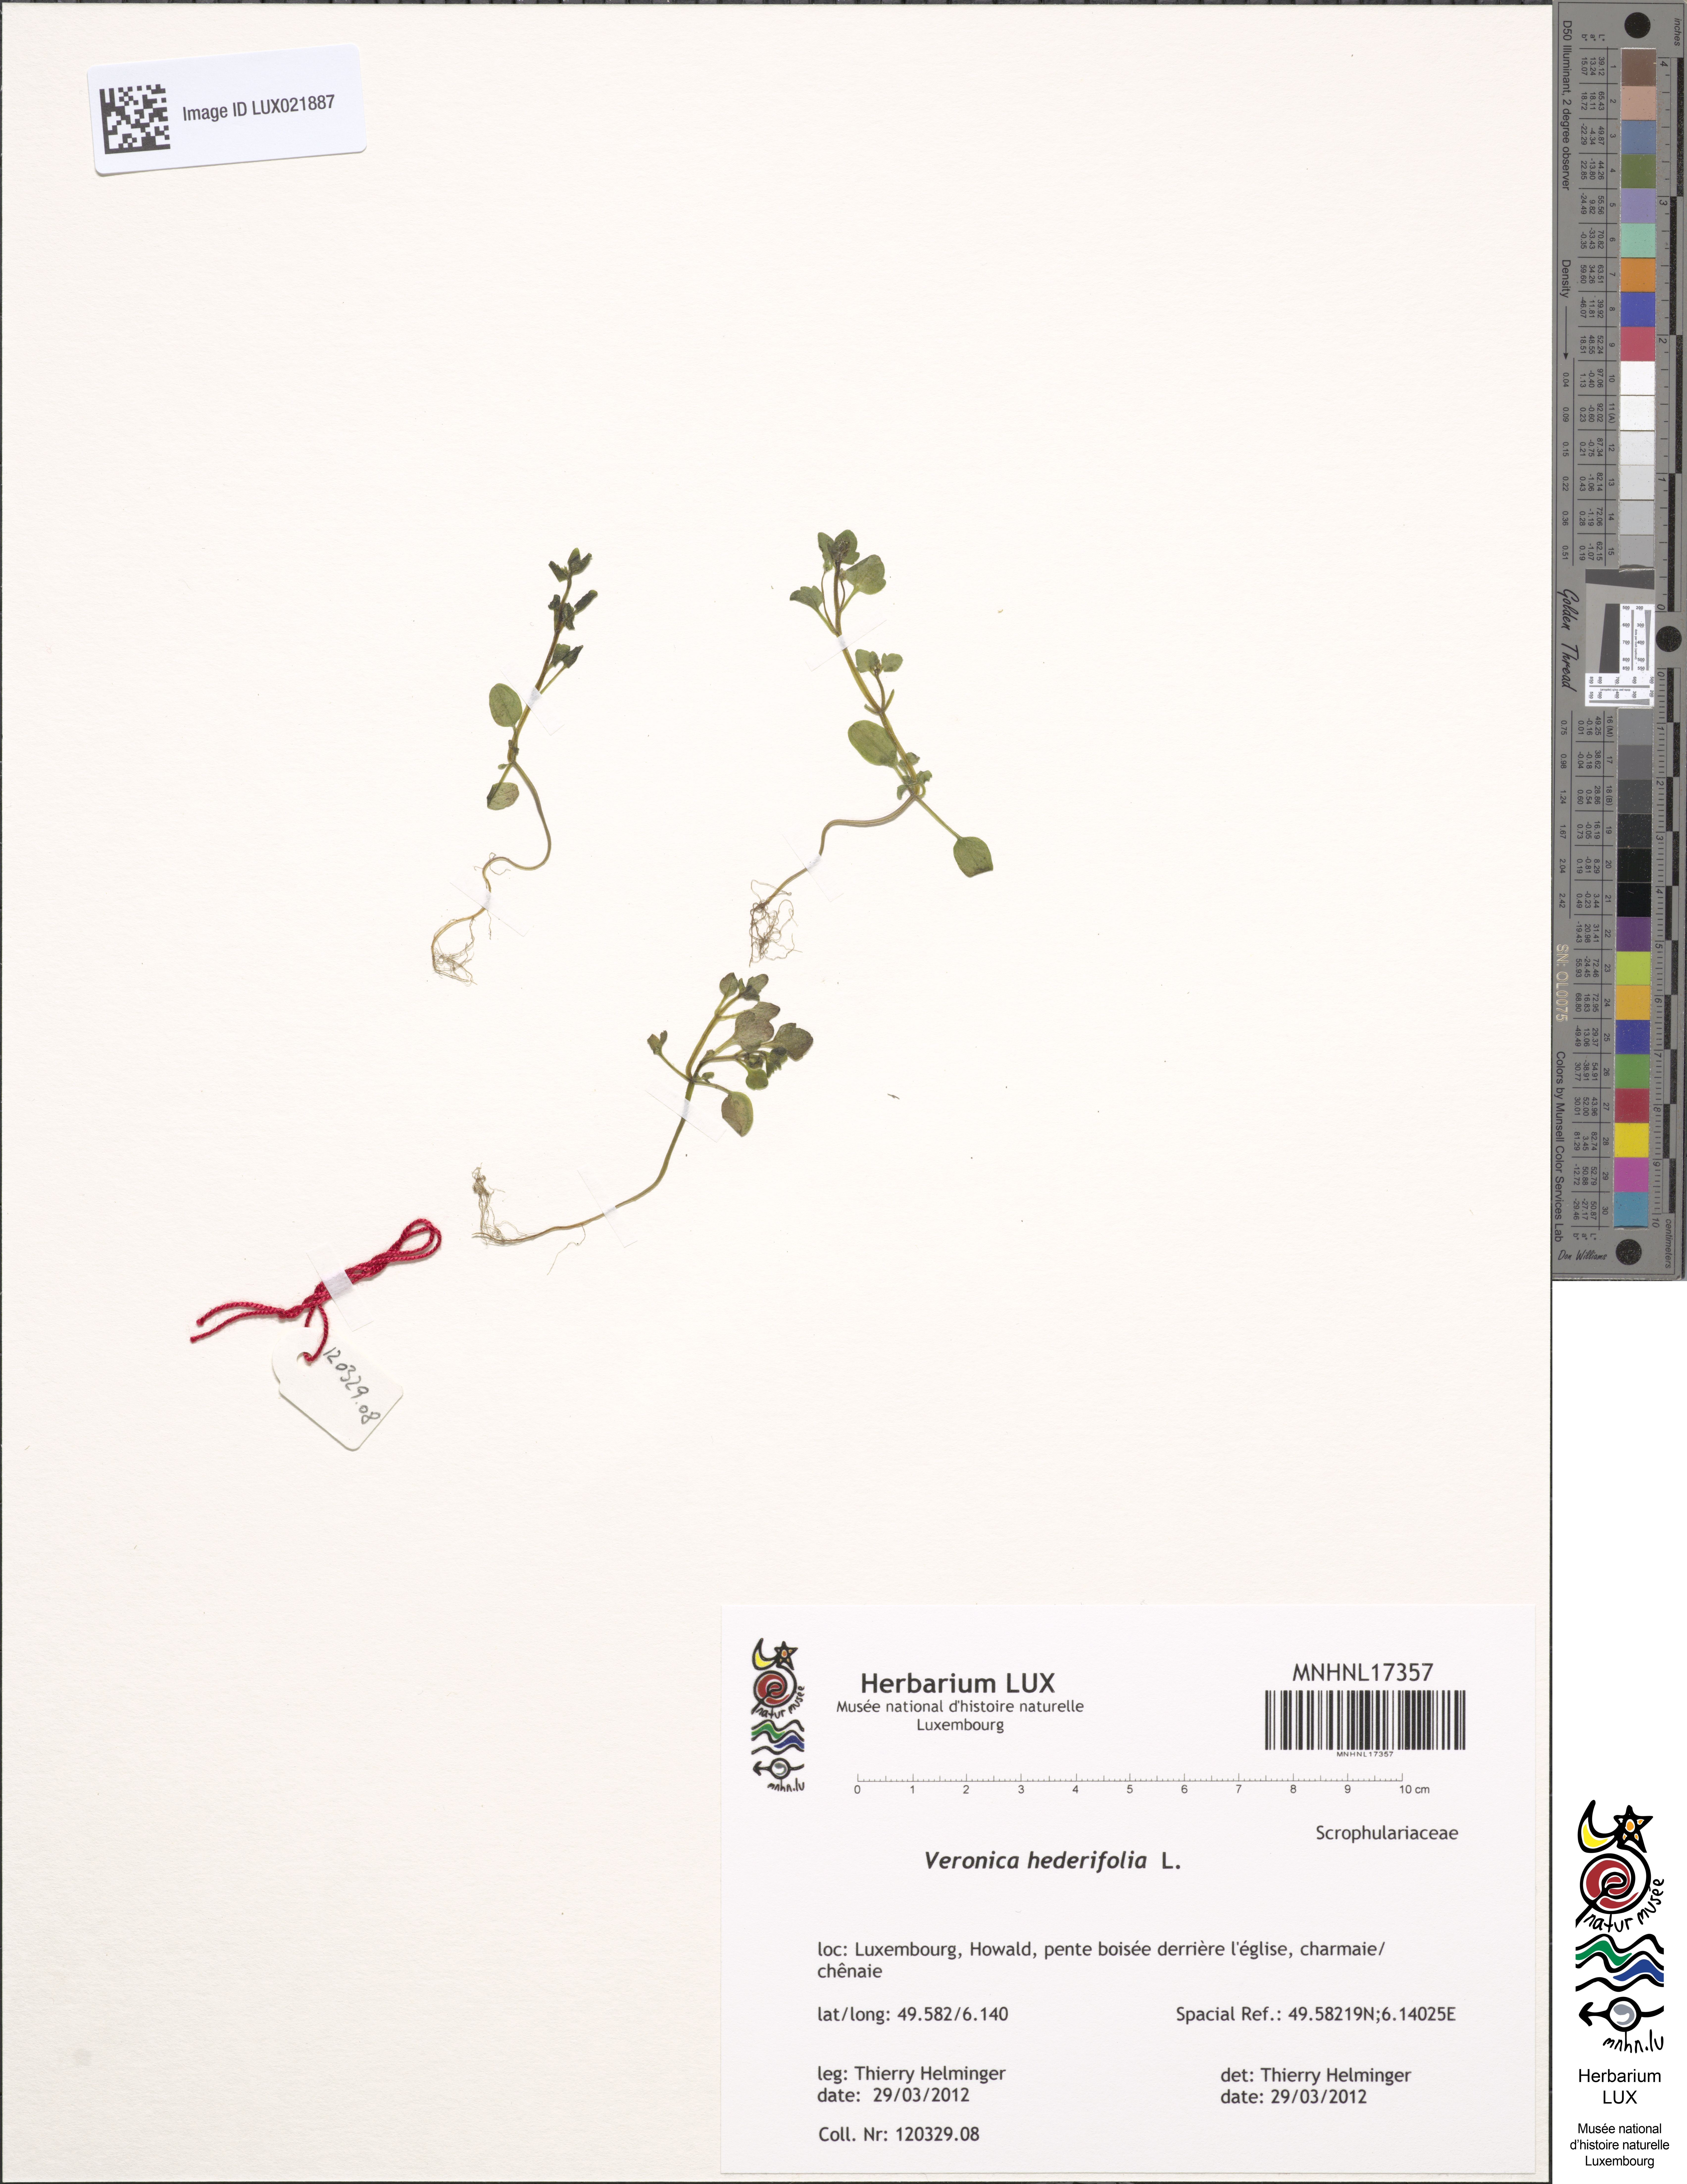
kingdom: Plantae
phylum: Tracheophyta
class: Magnoliopsida
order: Lamiales
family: Plantaginaceae
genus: Veronica
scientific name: Veronica hederifolia
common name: Ivy-leaved speedwell
